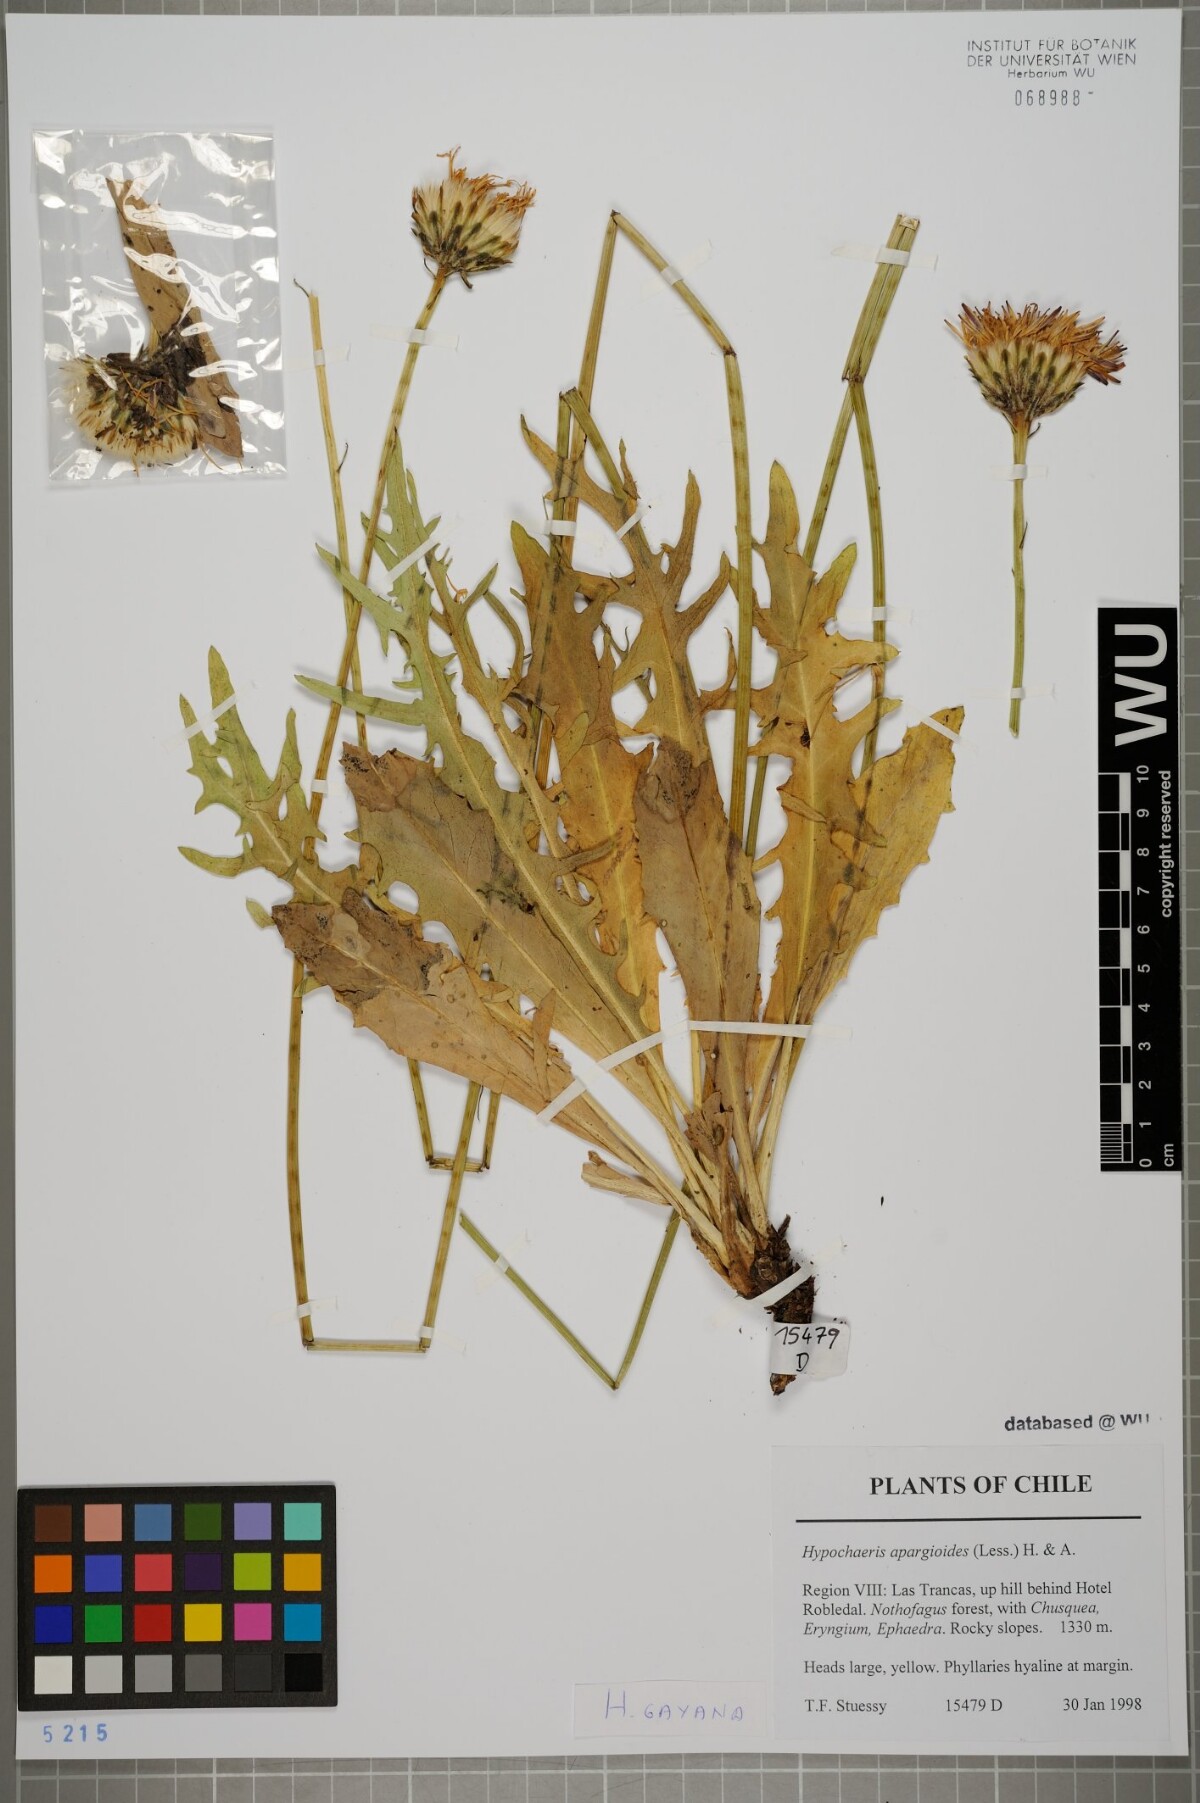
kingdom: Plantae
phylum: Tracheophyta
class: Magnoliopsida
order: Asterales
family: Asteraceae
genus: Hypochaeris
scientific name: Hypochaeris apargioides
